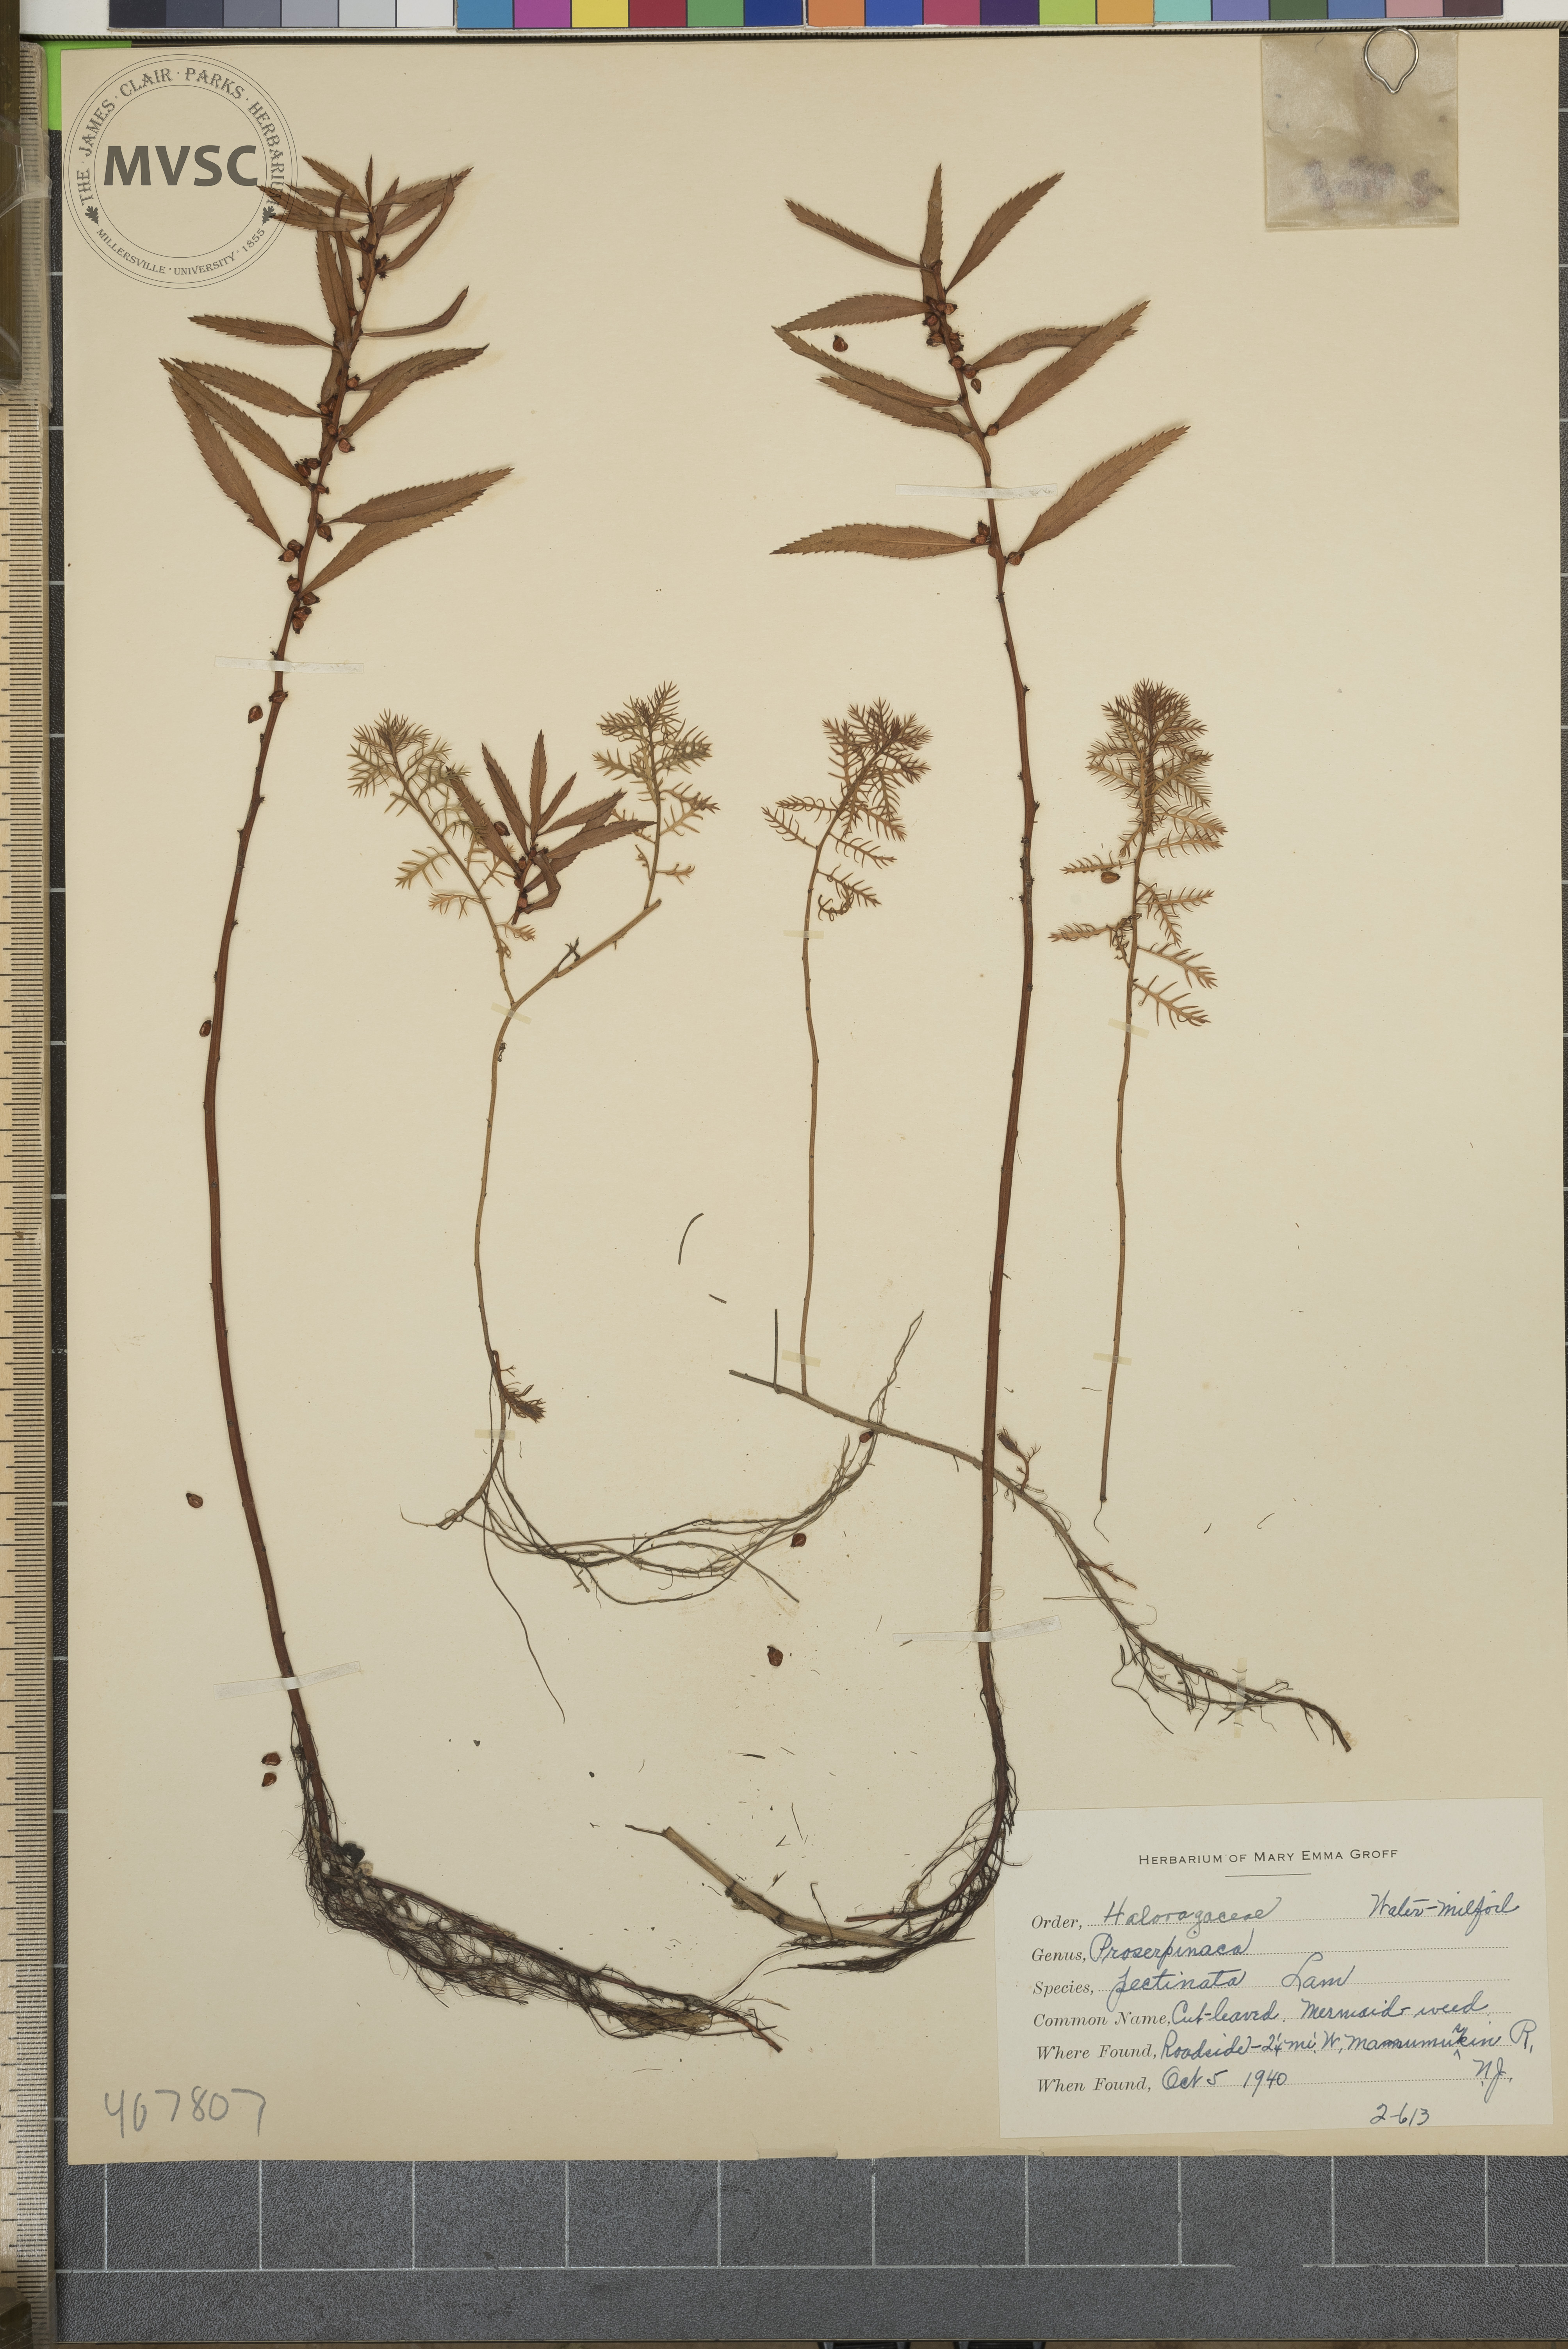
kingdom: Plantae
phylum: Tracheophyta
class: Magnoliopsida
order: Saxifragales
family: Haloragaceae
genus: Proserpinaca
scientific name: Proserpinaca pectinata
